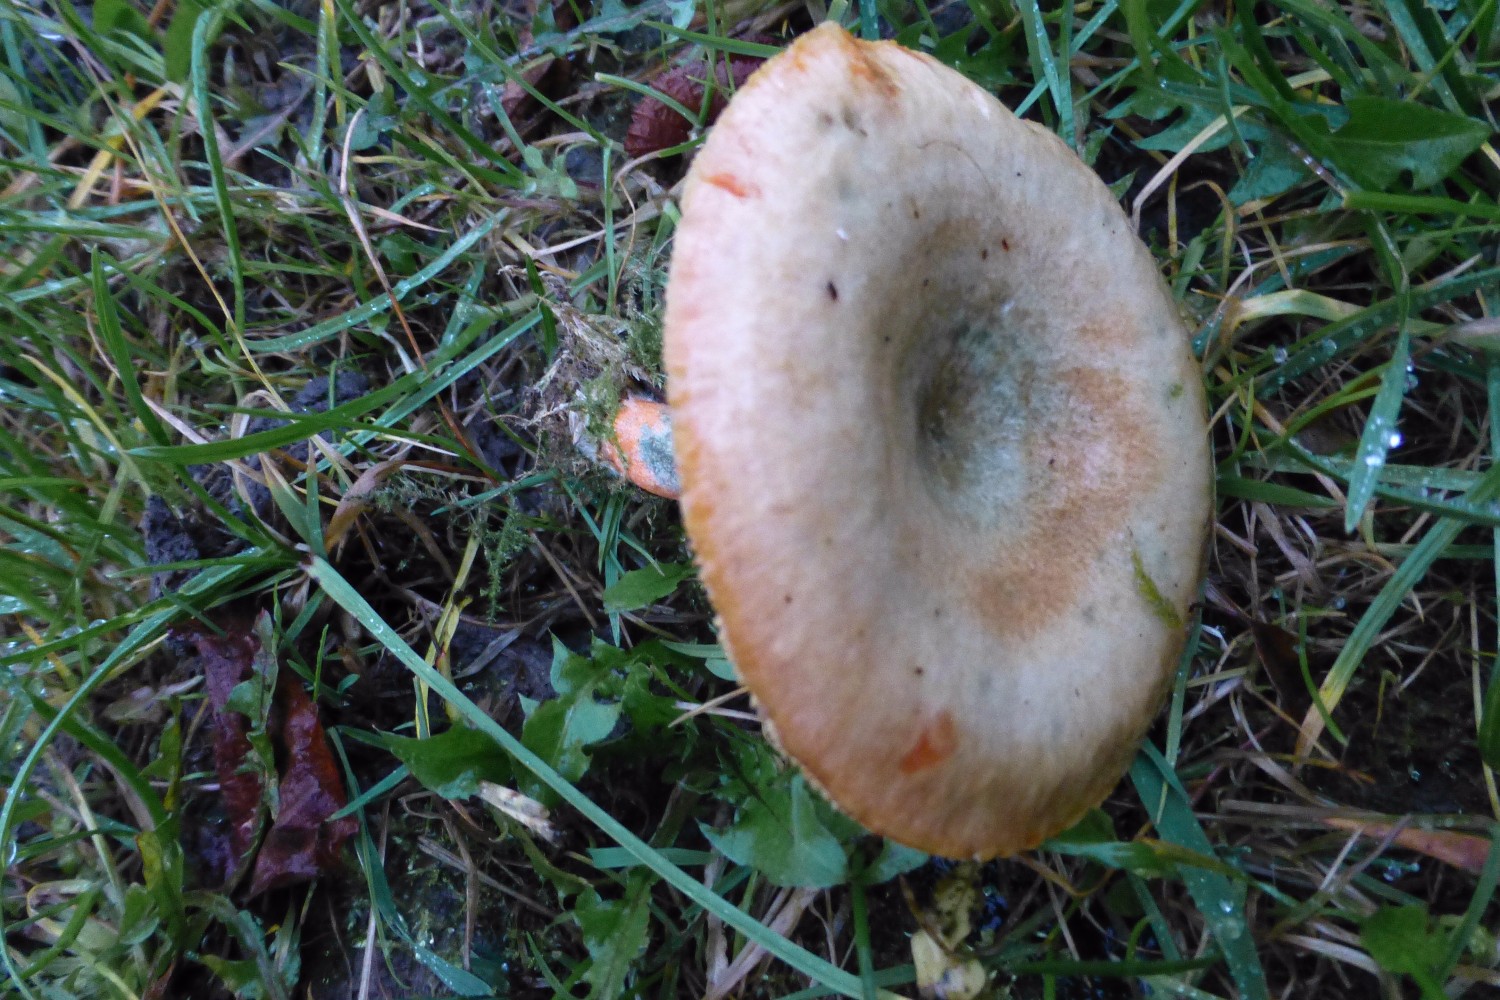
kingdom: Fungi
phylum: Basidiomycota
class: Agaricomycetes
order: Russulales
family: Russulaceae
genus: Lactarius
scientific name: Lactarius deterrimus
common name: gran-mælkehat
